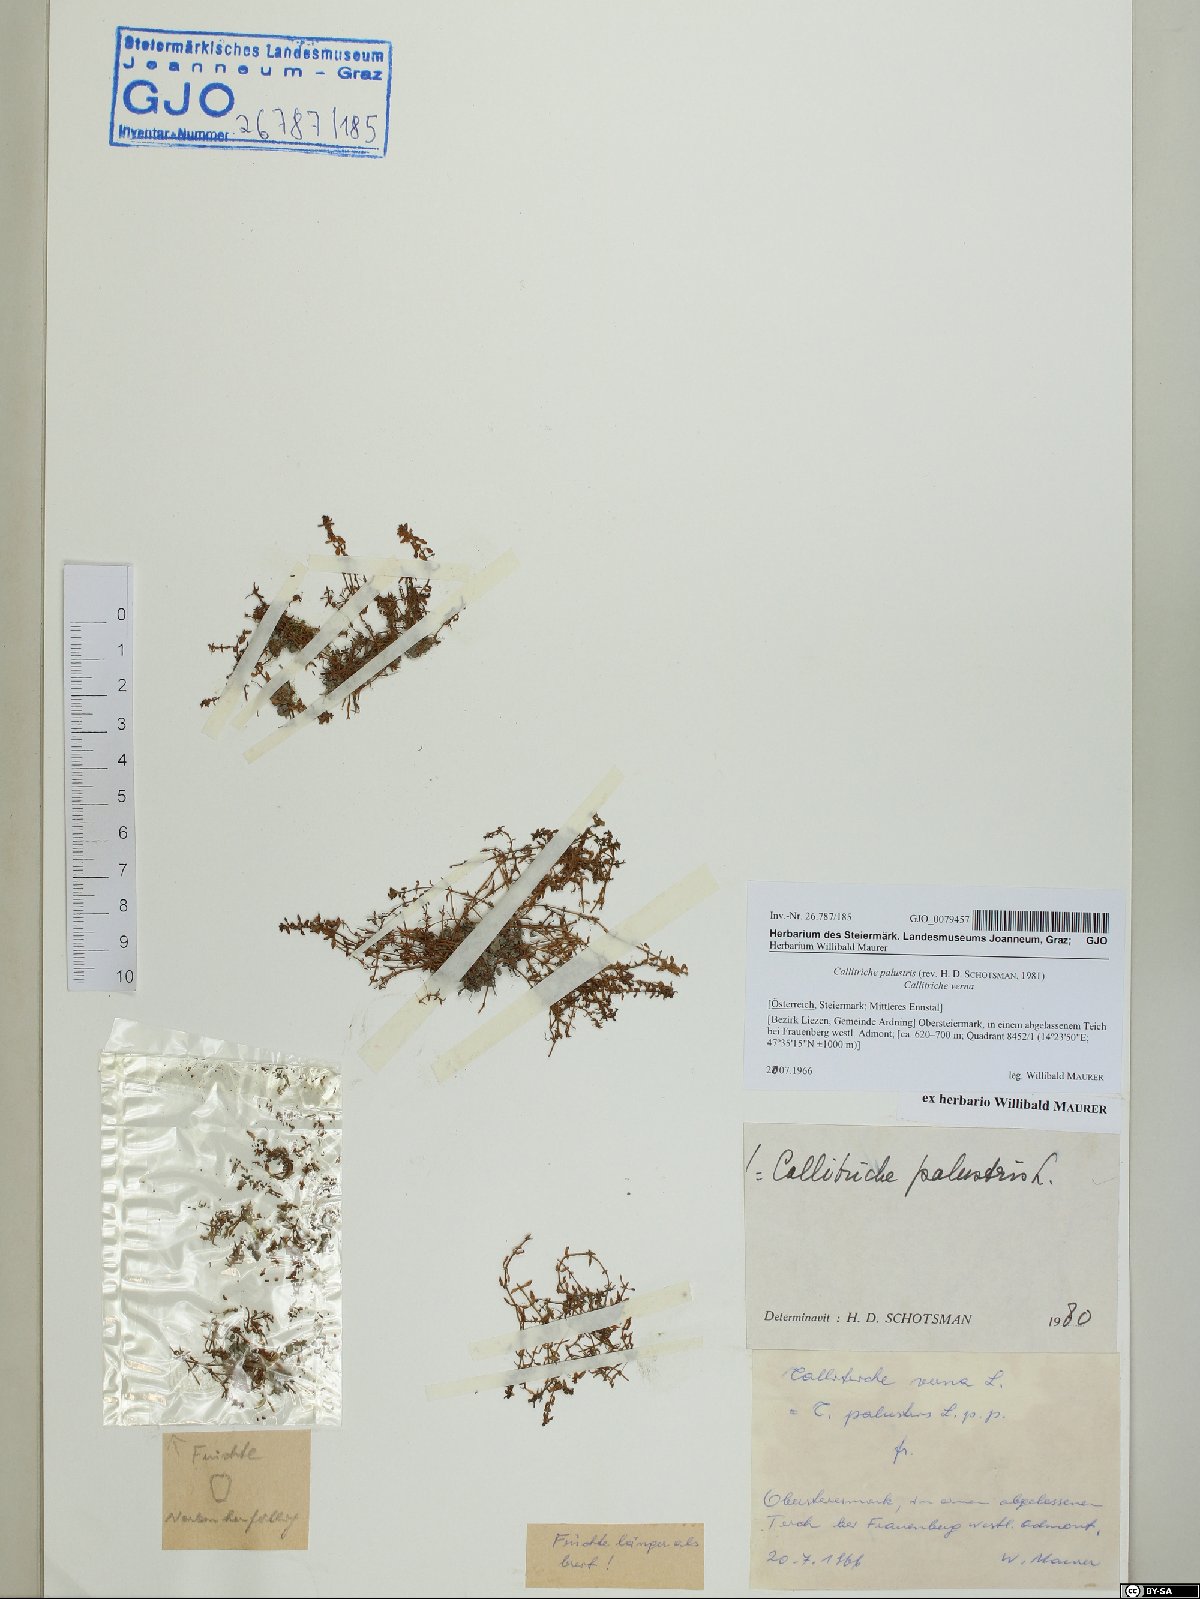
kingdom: Plantae
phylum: Tracheophyta
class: Magnoliopsida
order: Lamiales
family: Plantaginaceae
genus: Callitriche
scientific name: Callitriche palustris
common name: Spring water-starwort
